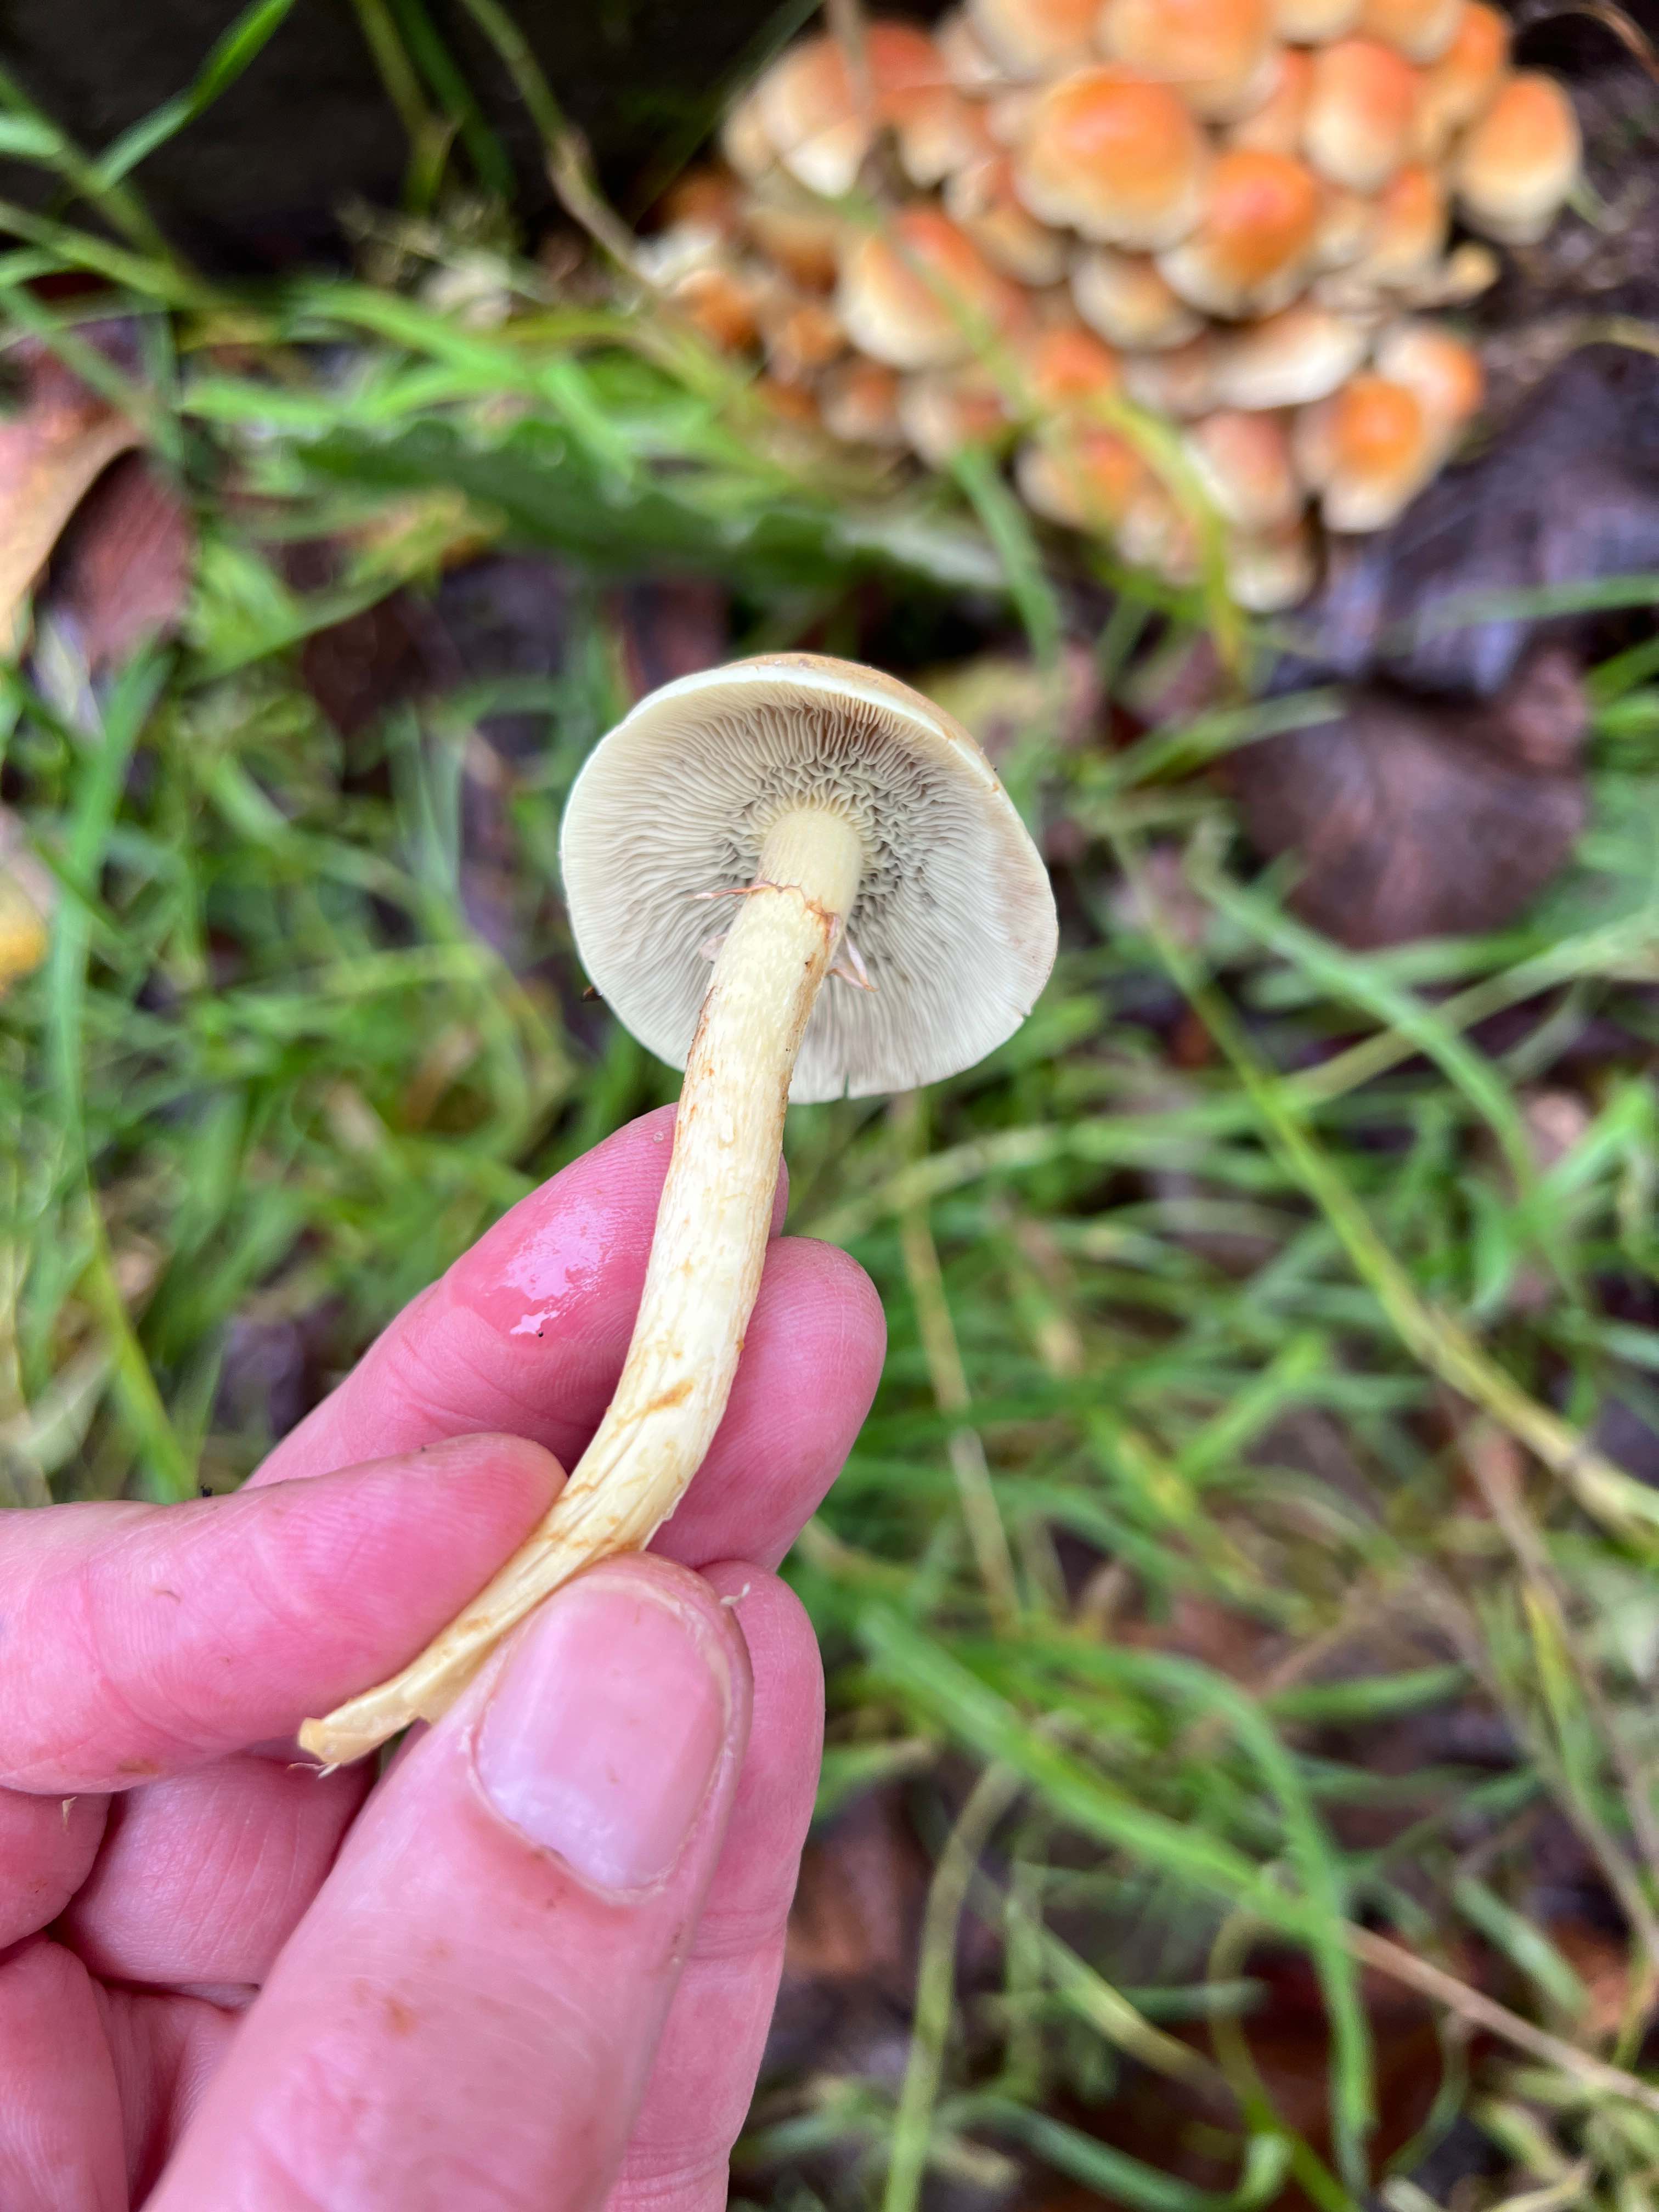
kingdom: Fungi
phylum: Basidiomycota
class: Agaricomycetes
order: Agaricales
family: Strophariaceae
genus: Hypholoma
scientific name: Hypholoma fasciculare
